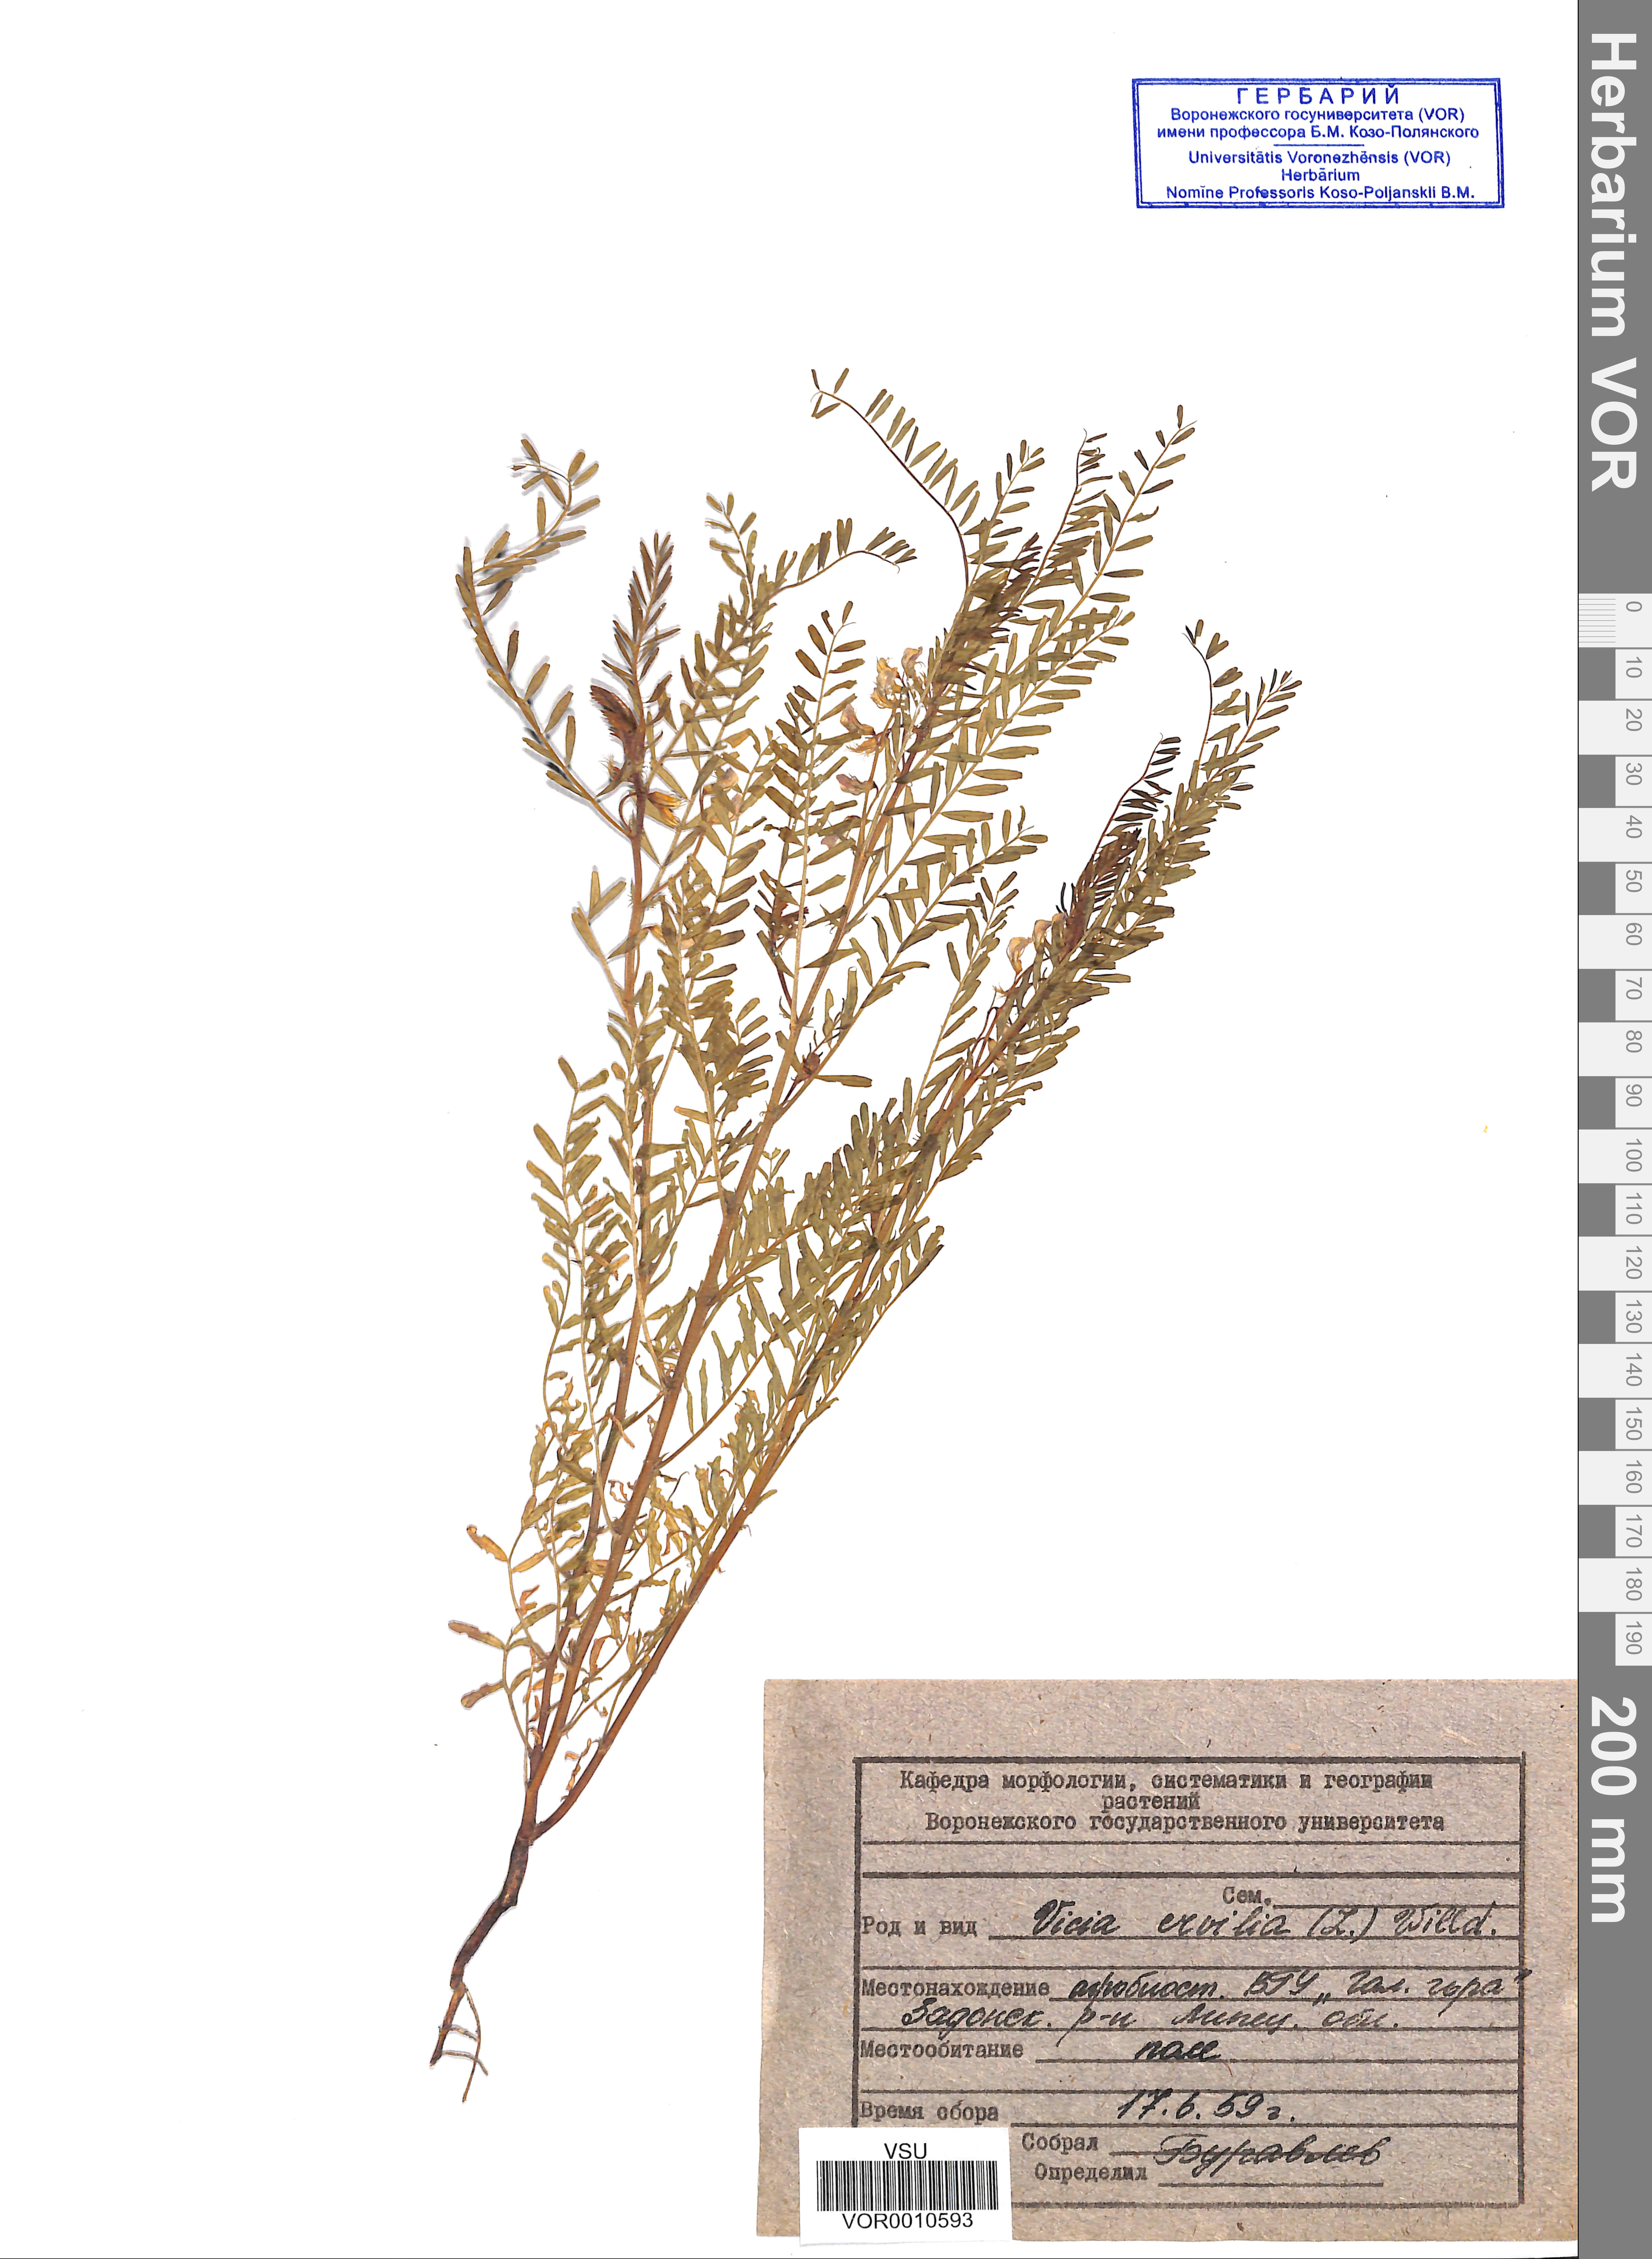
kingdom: Plantae
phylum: Tracheophyta
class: Magnoliopsida
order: Fabales
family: Fabaceae
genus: Vicia
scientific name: Vicia hirsuta
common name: Tiny vetch
